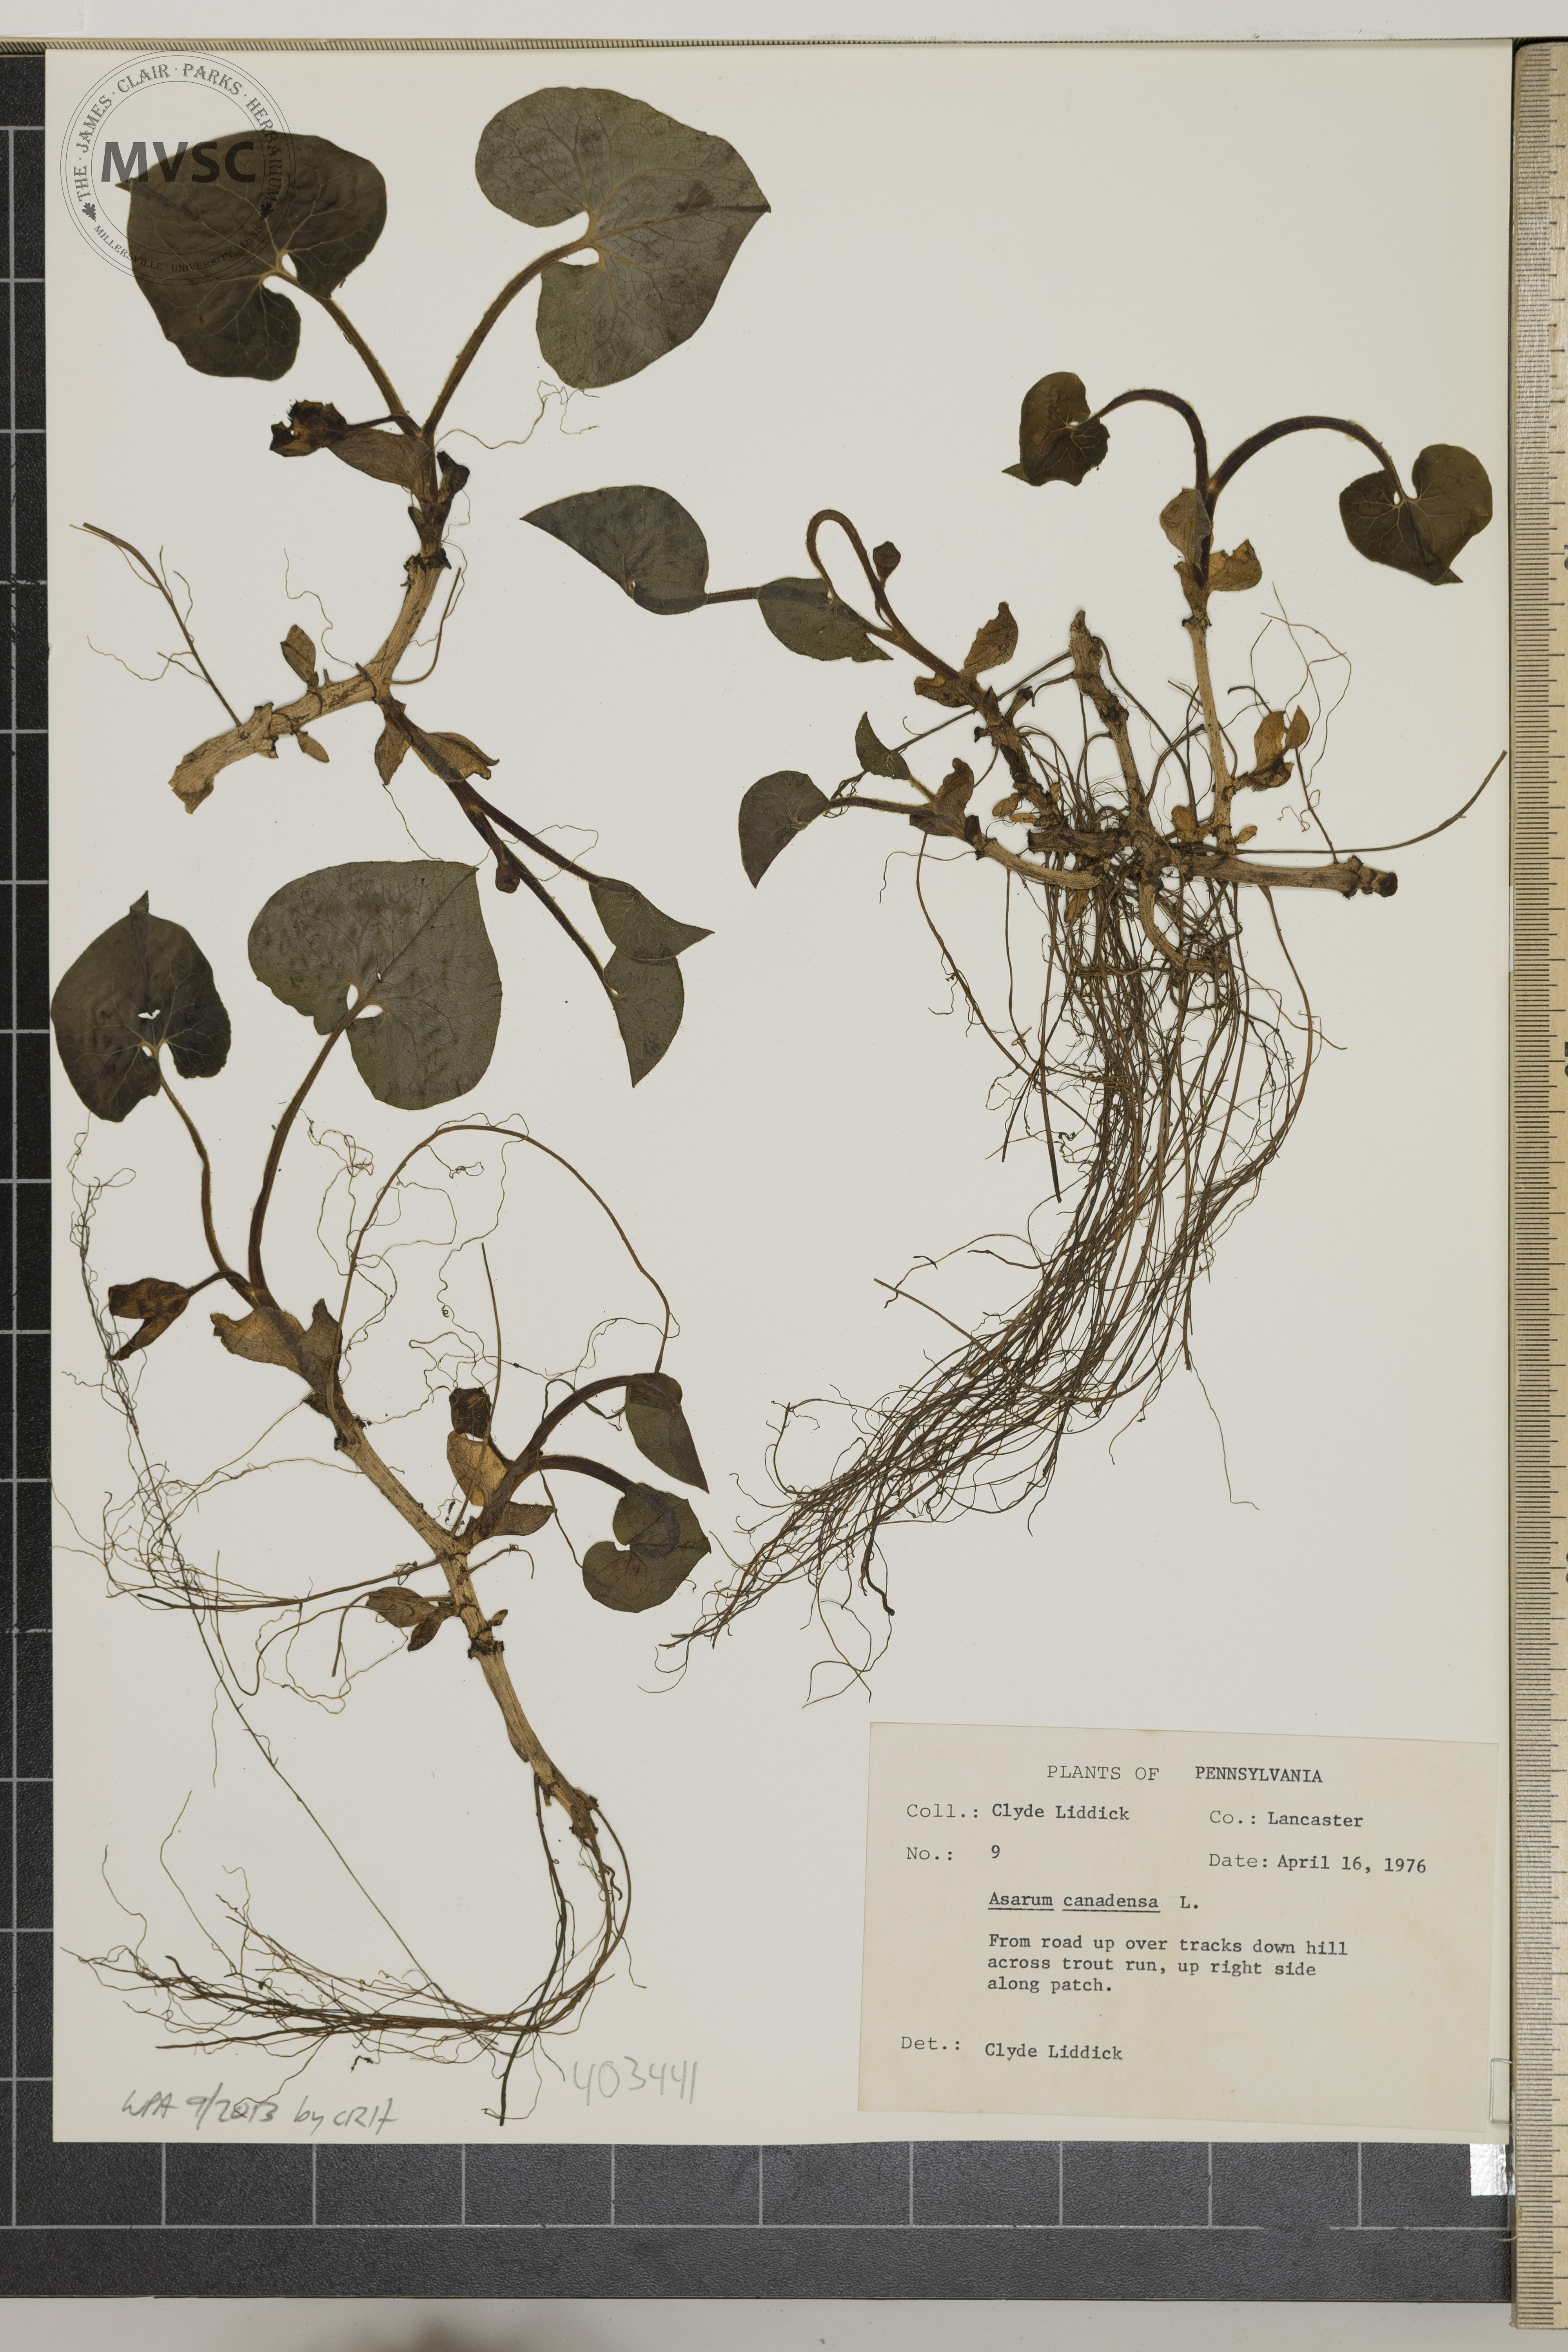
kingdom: Plantae
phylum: Tracheophyta
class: Magnoliopsida
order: Piperales
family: Aristolochiaceae
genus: Asarum
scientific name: Asarum canadense
